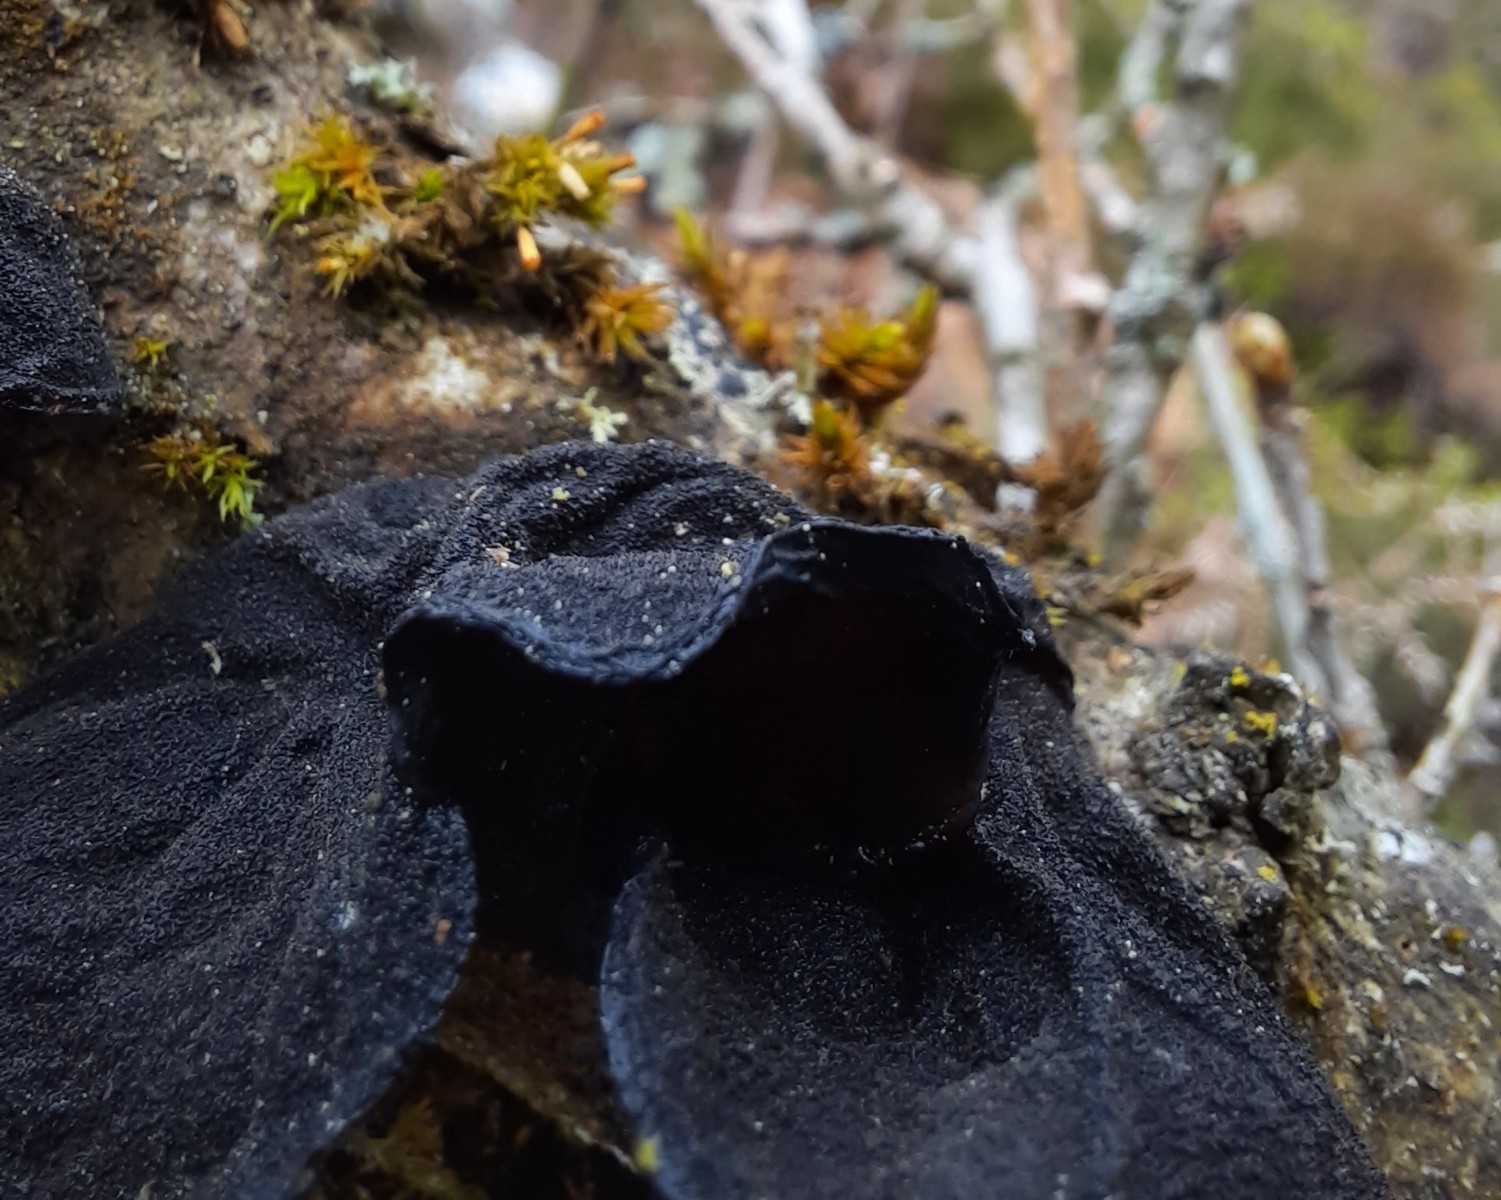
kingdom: Fungi
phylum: Basidiomycota
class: Agaricomycetes
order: Auriculariales
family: Auriculariaceae
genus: Exidia
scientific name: Exidia glandulosa
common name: ege-bævretop
